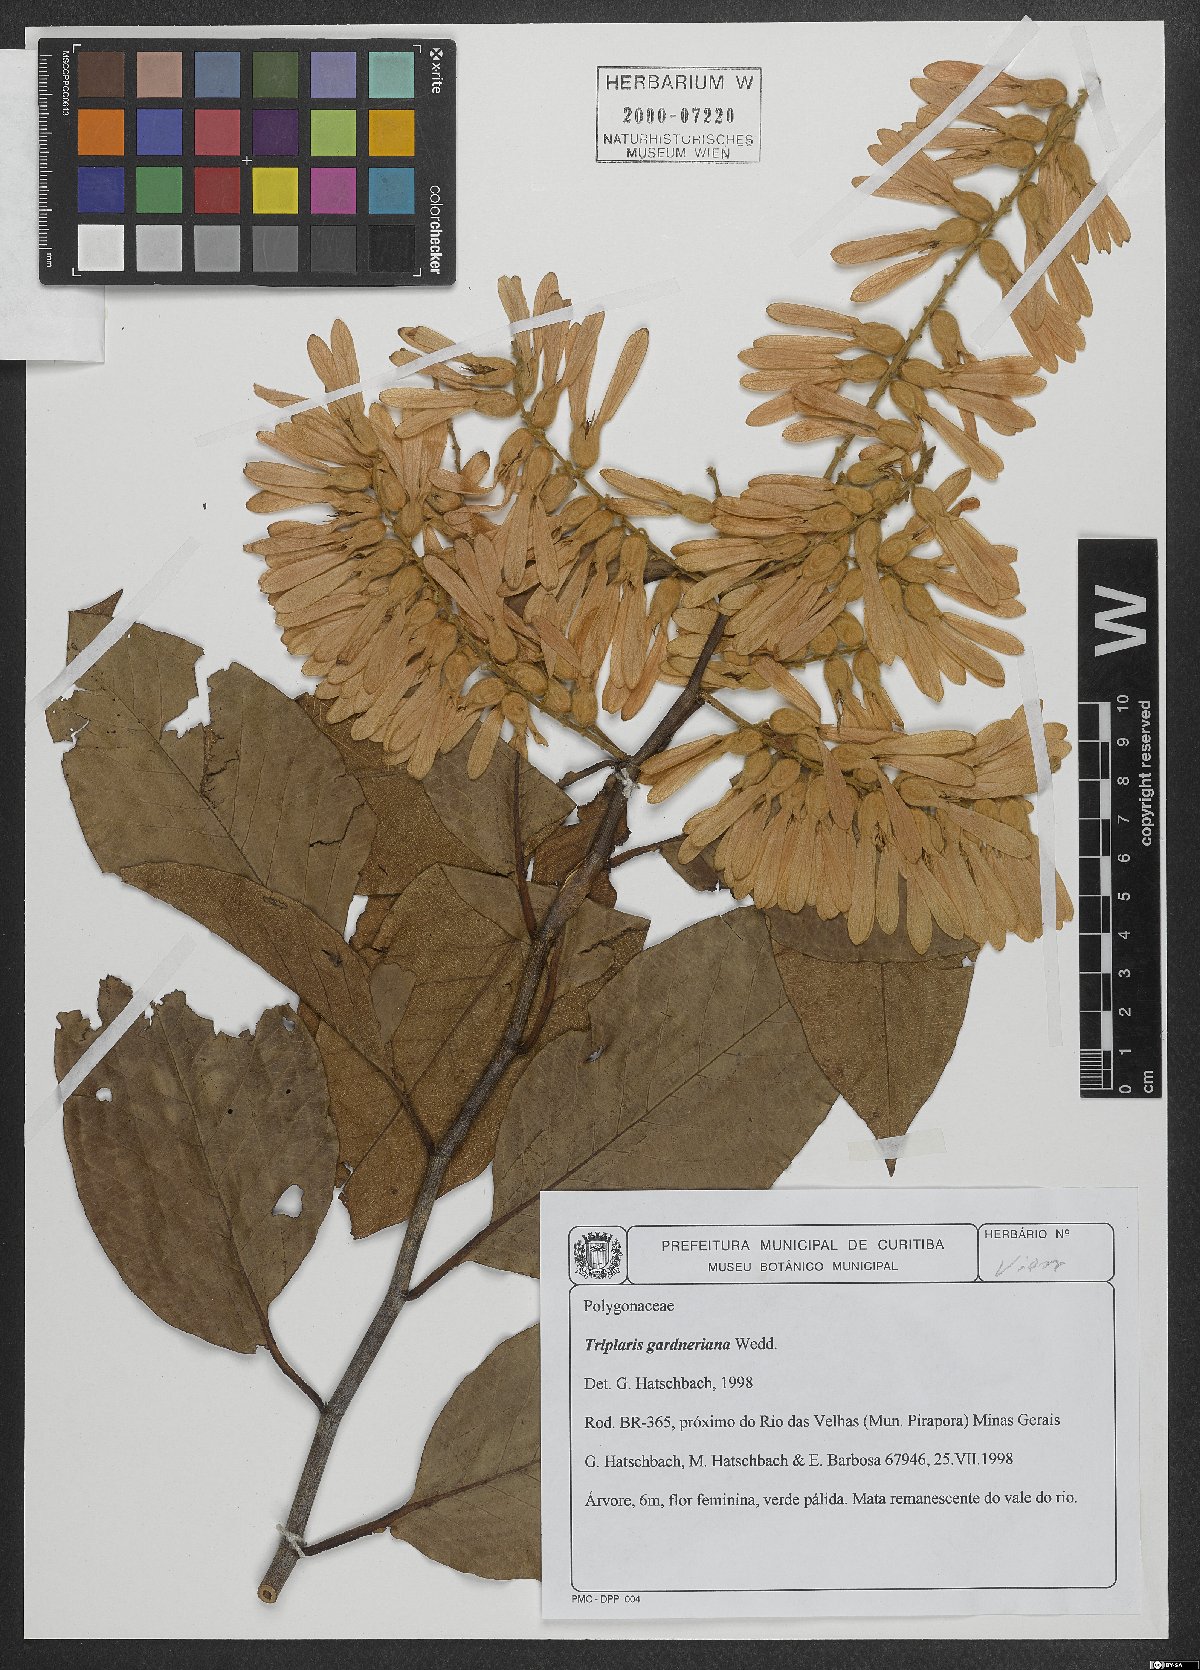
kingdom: Plantae
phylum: Tracheophyta
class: Magnoliopsida
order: Caryophyllales
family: Polygonaceae
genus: Triplaris
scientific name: Triplaris gardneriana
